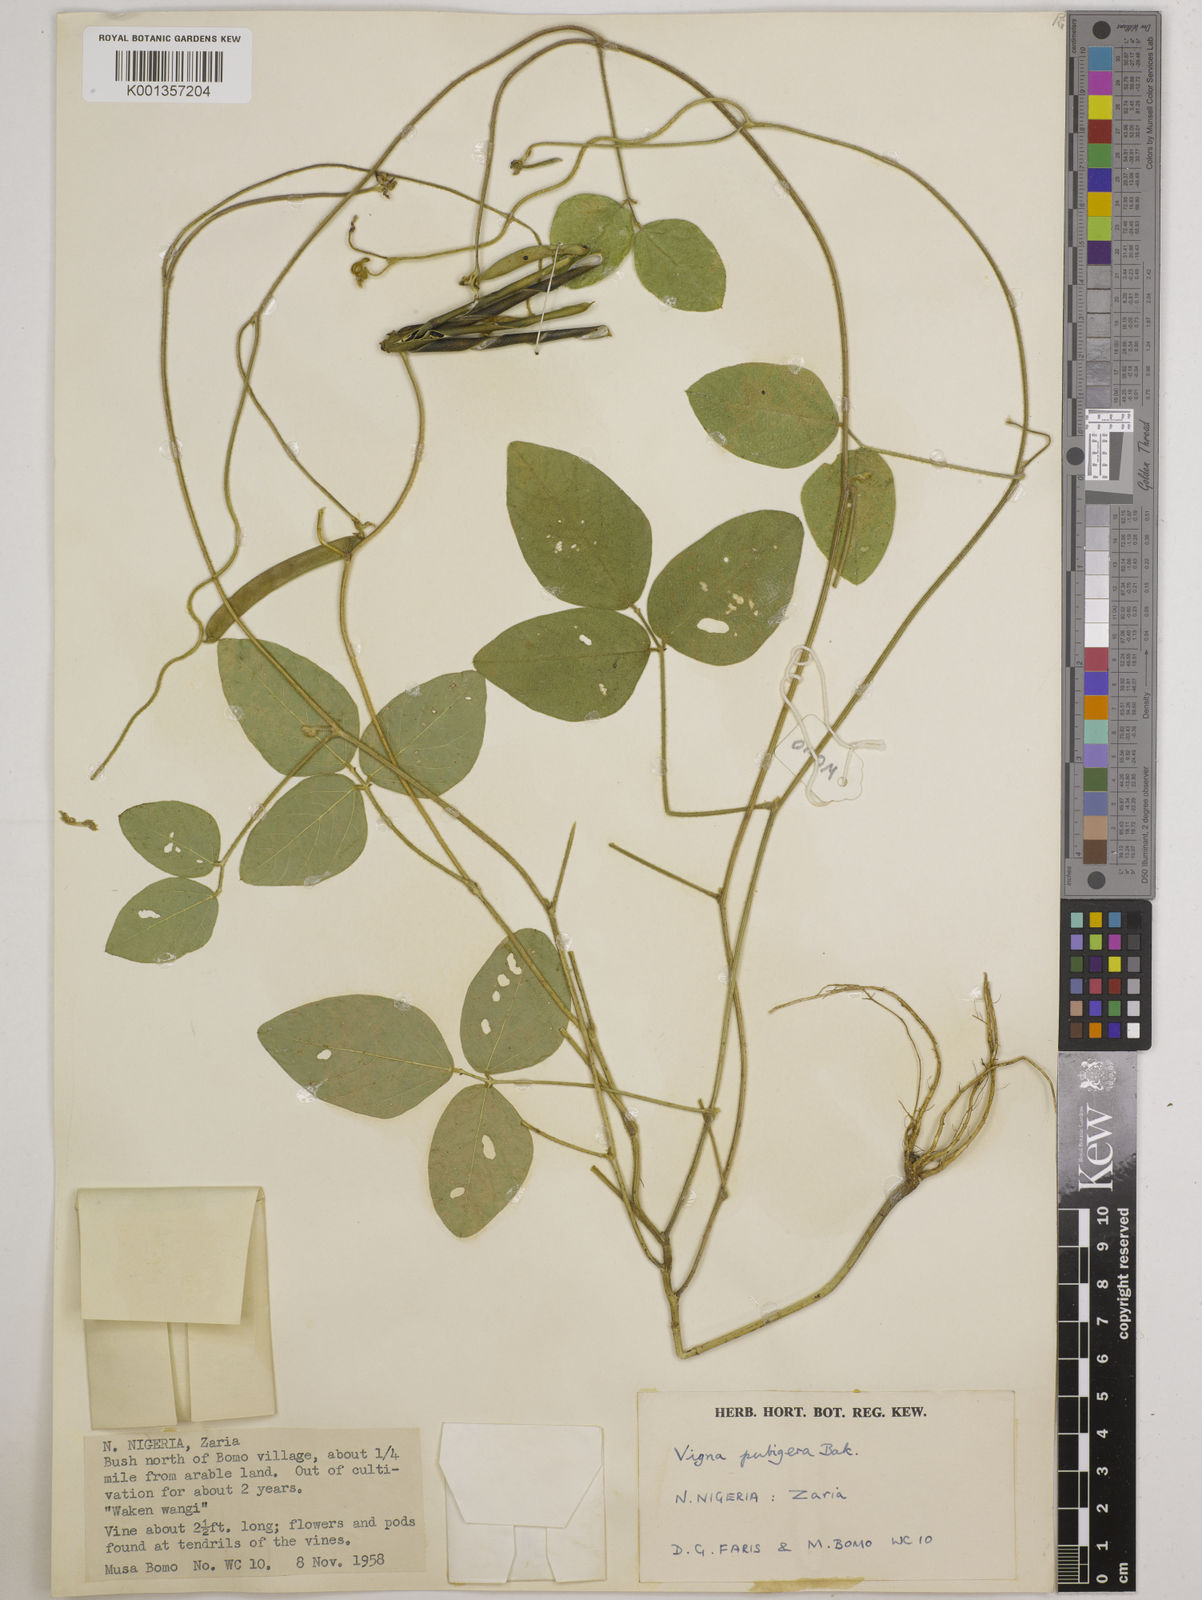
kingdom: Plantae
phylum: Tracheophyta
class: Magnoliopsida
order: Fabales
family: Fabaceae
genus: Vigna
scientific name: Vigna ambacensis
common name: Tsarkiyan zomo
